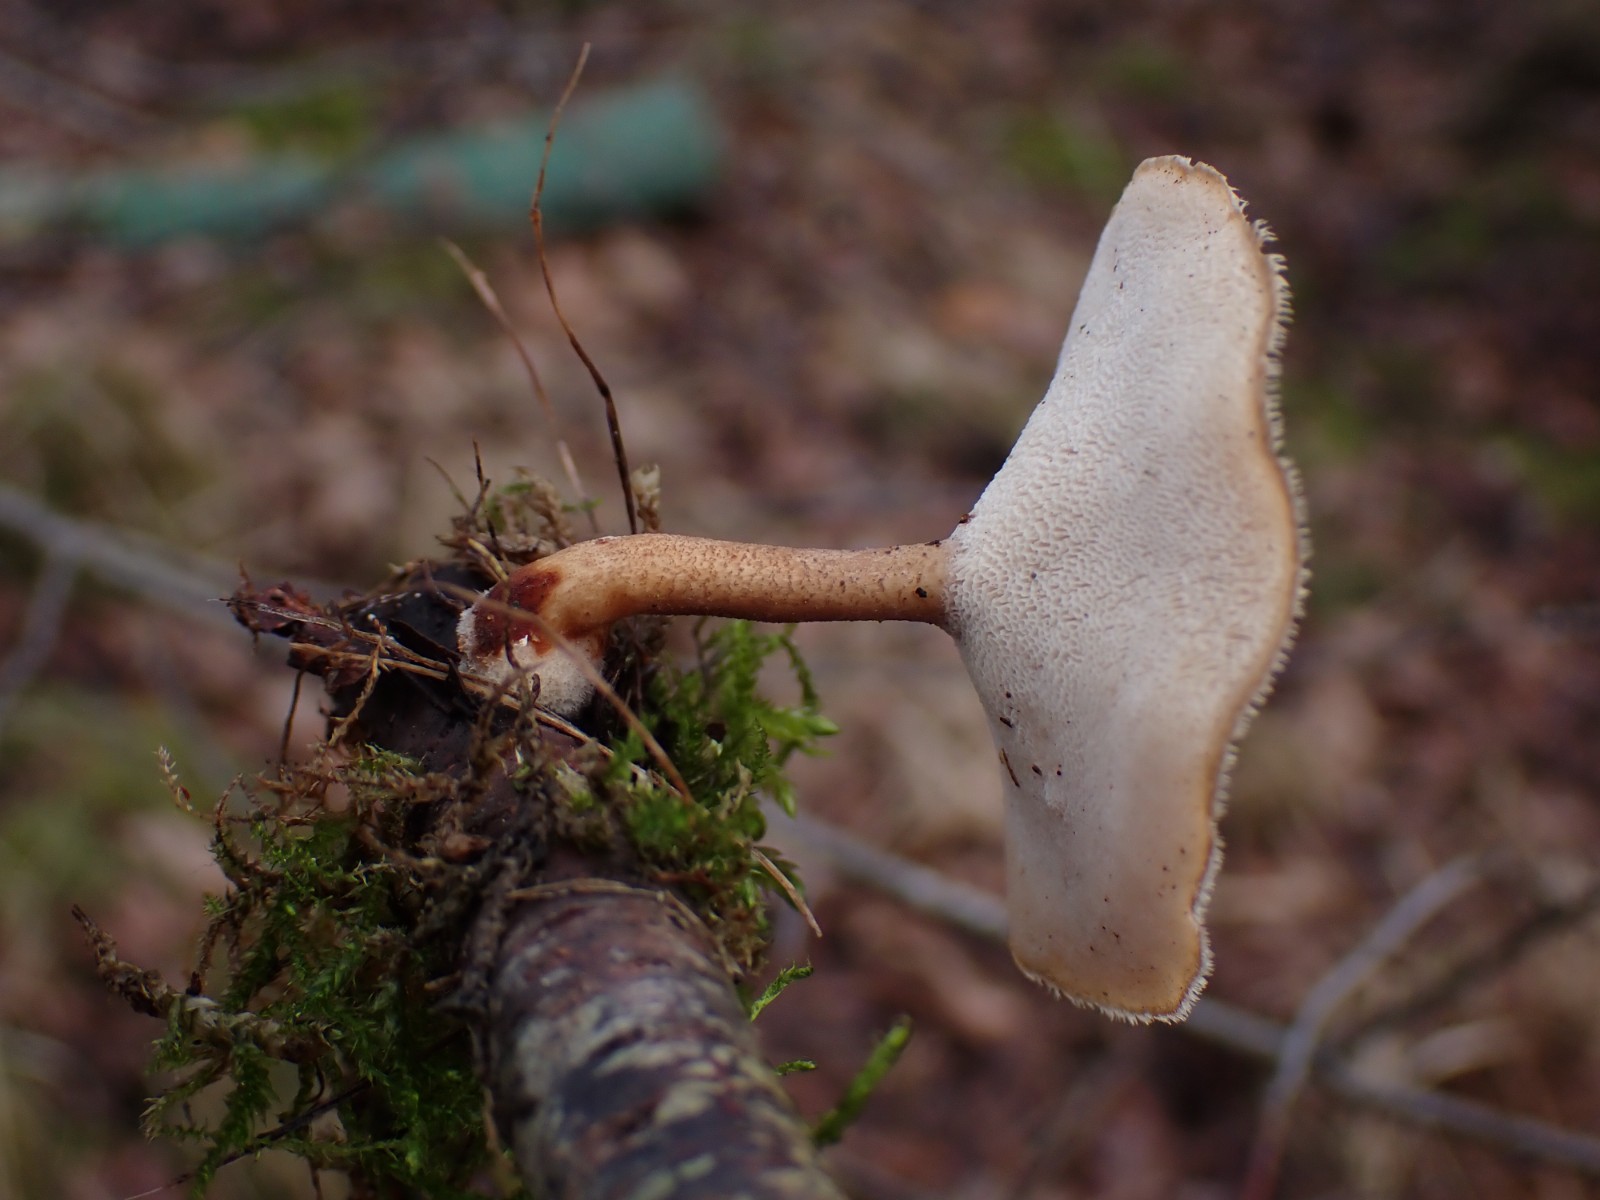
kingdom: Fungi
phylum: Basidiomycota
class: Agaricomycetes
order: Polyporales
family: Polyporaceae
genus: Lentinus
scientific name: Lentinus brumalis
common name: vinter-stilkporesvamp
